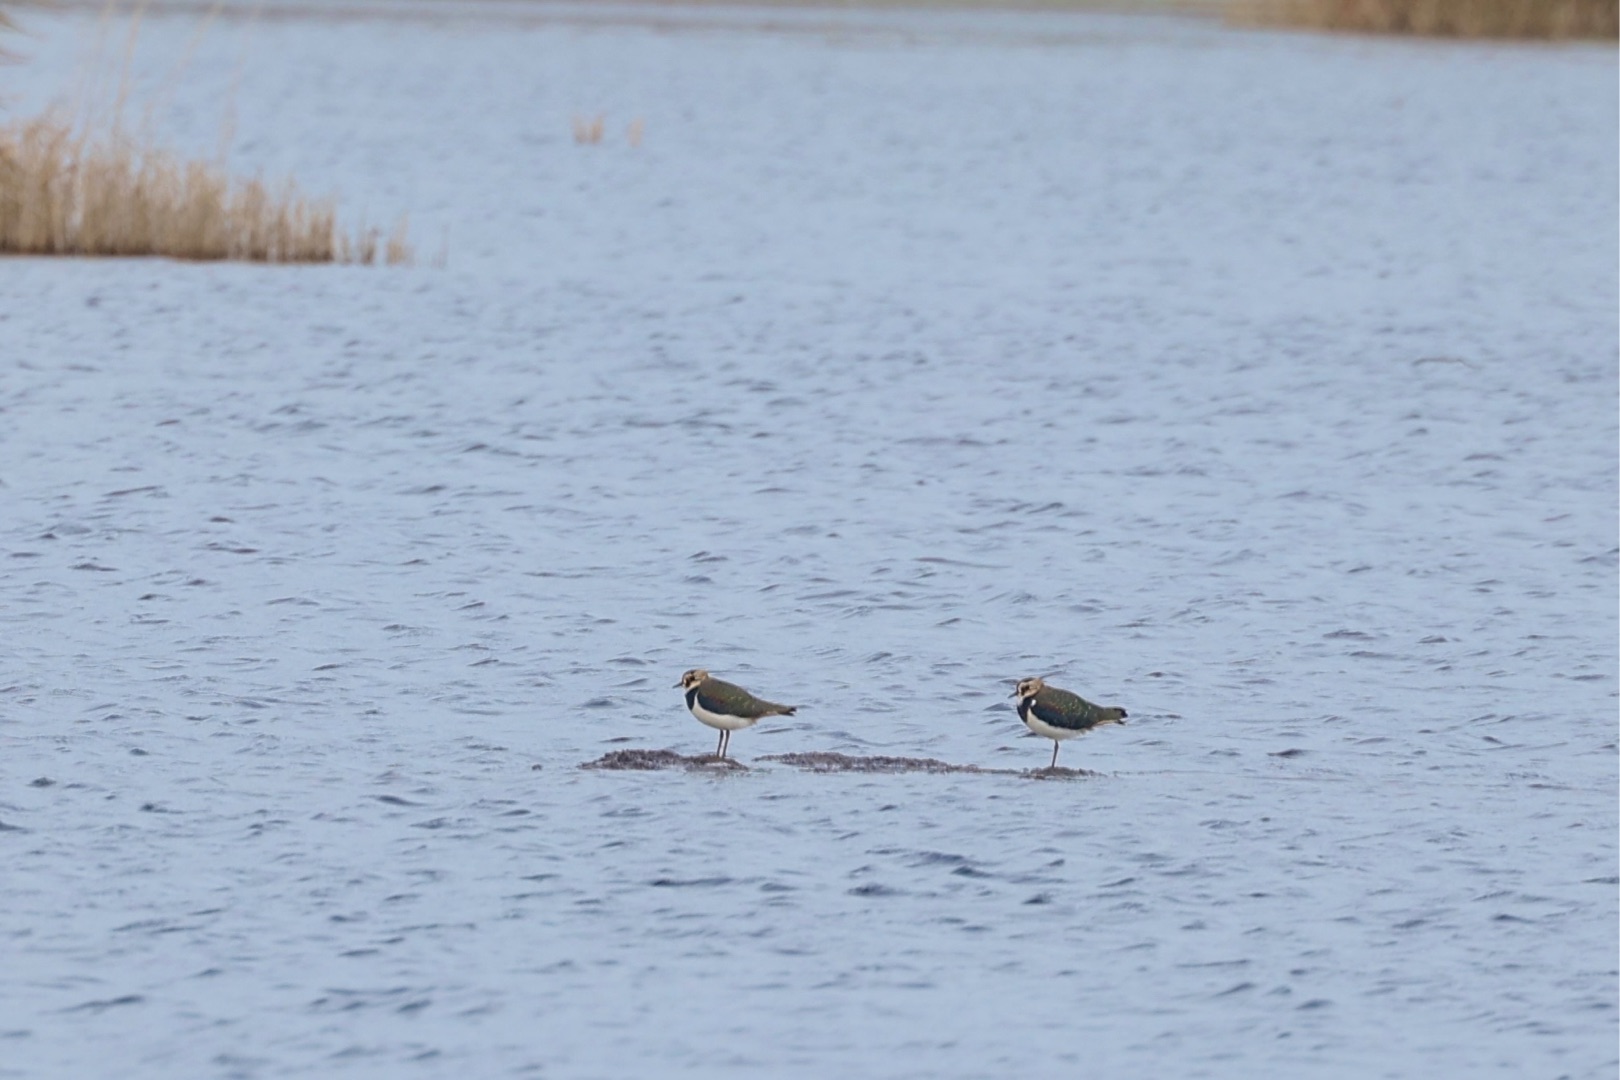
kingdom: Animalia
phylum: Chordata
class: Aves
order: Charadriiformes
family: Charadriidae
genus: Vanellus
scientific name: Vanellus vanellus
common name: Vibe
